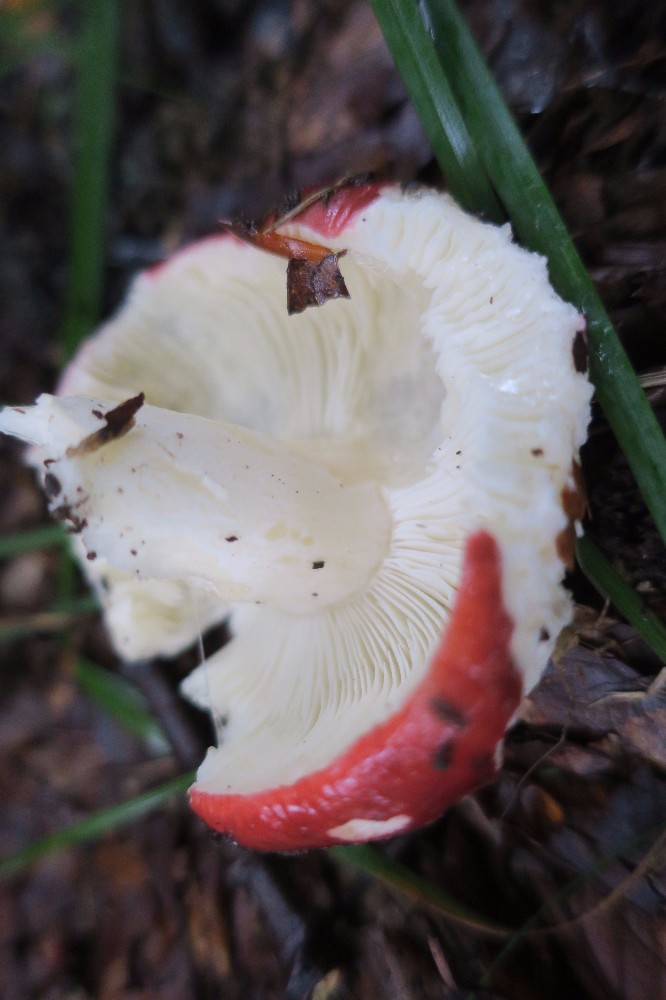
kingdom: Fungi
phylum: Basidiomycota
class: Agaricomycetes
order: Russulales
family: Russulaceae
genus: Russula
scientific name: Russula nobilis
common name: lille gift-skørhat
